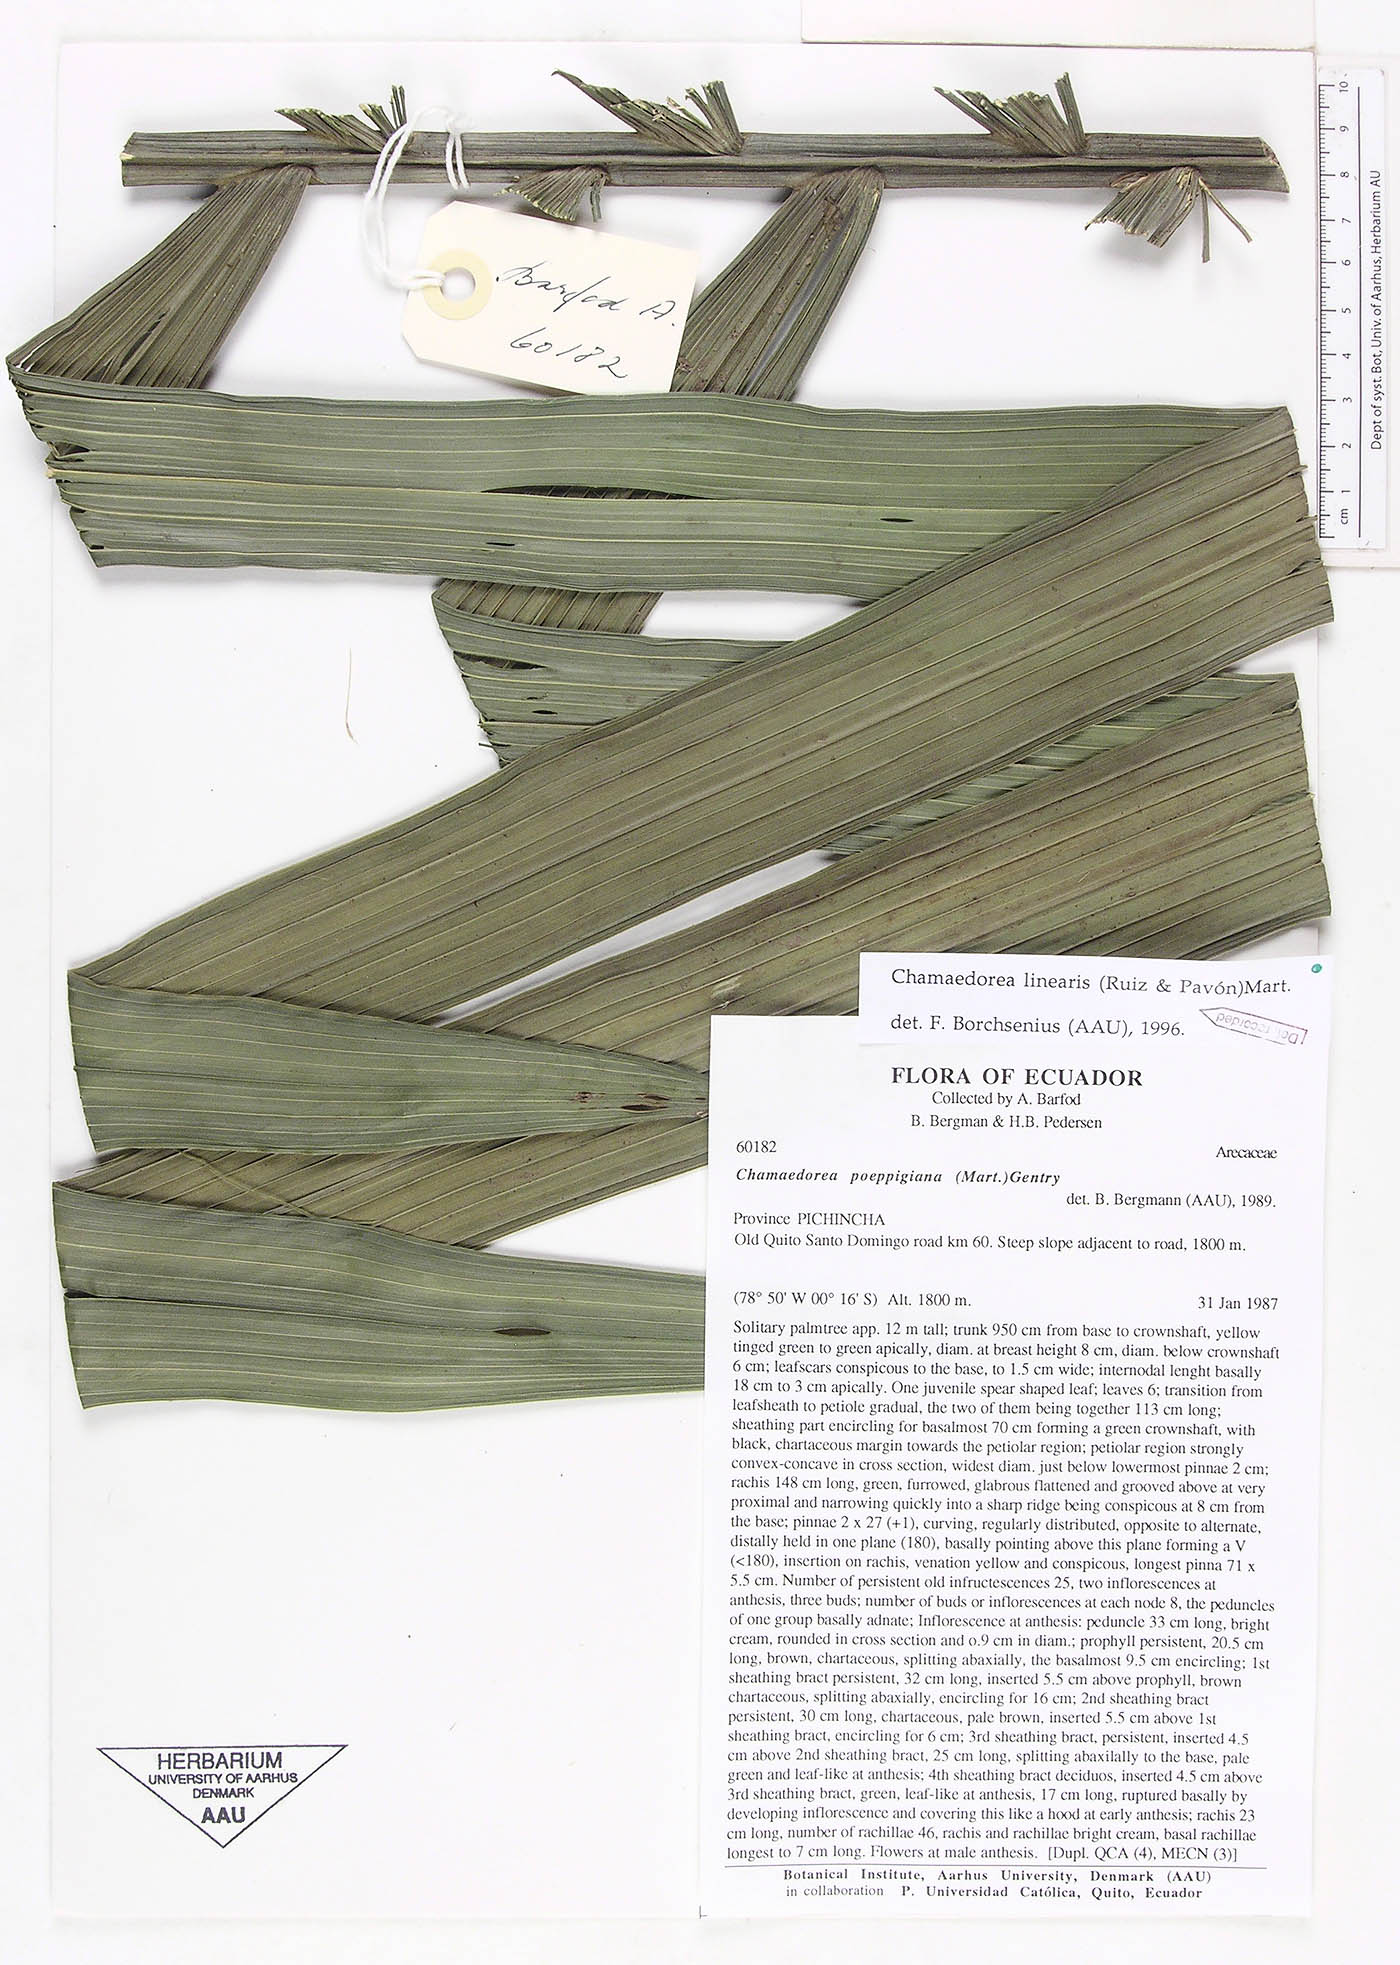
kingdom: Plantae
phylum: Tracheophyta
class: Liliopsida
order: Arecales
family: Arecaceae
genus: Chamaedorea
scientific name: Chamaedorea linearis
